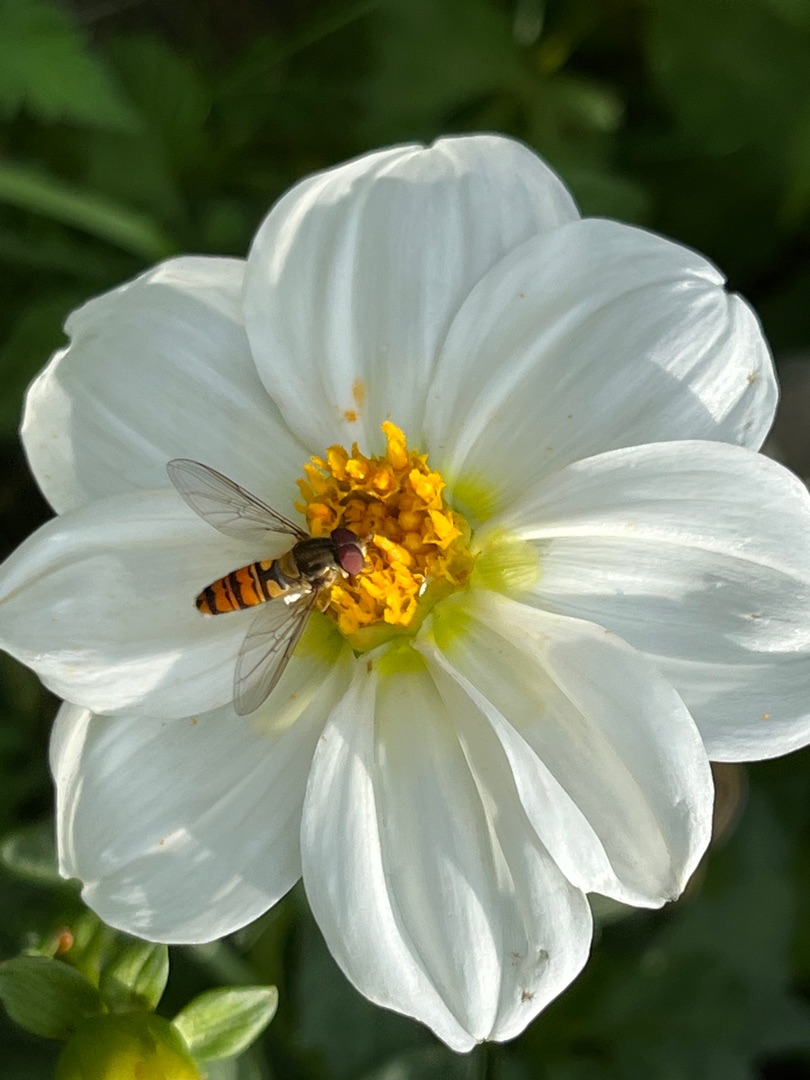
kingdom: Animalia
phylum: Arthropoda
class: Insecta
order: Diptera
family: Syrphidae
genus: Episyrphus
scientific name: Episyrphus balteatus
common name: Dobbeltbåndet svirreflue
